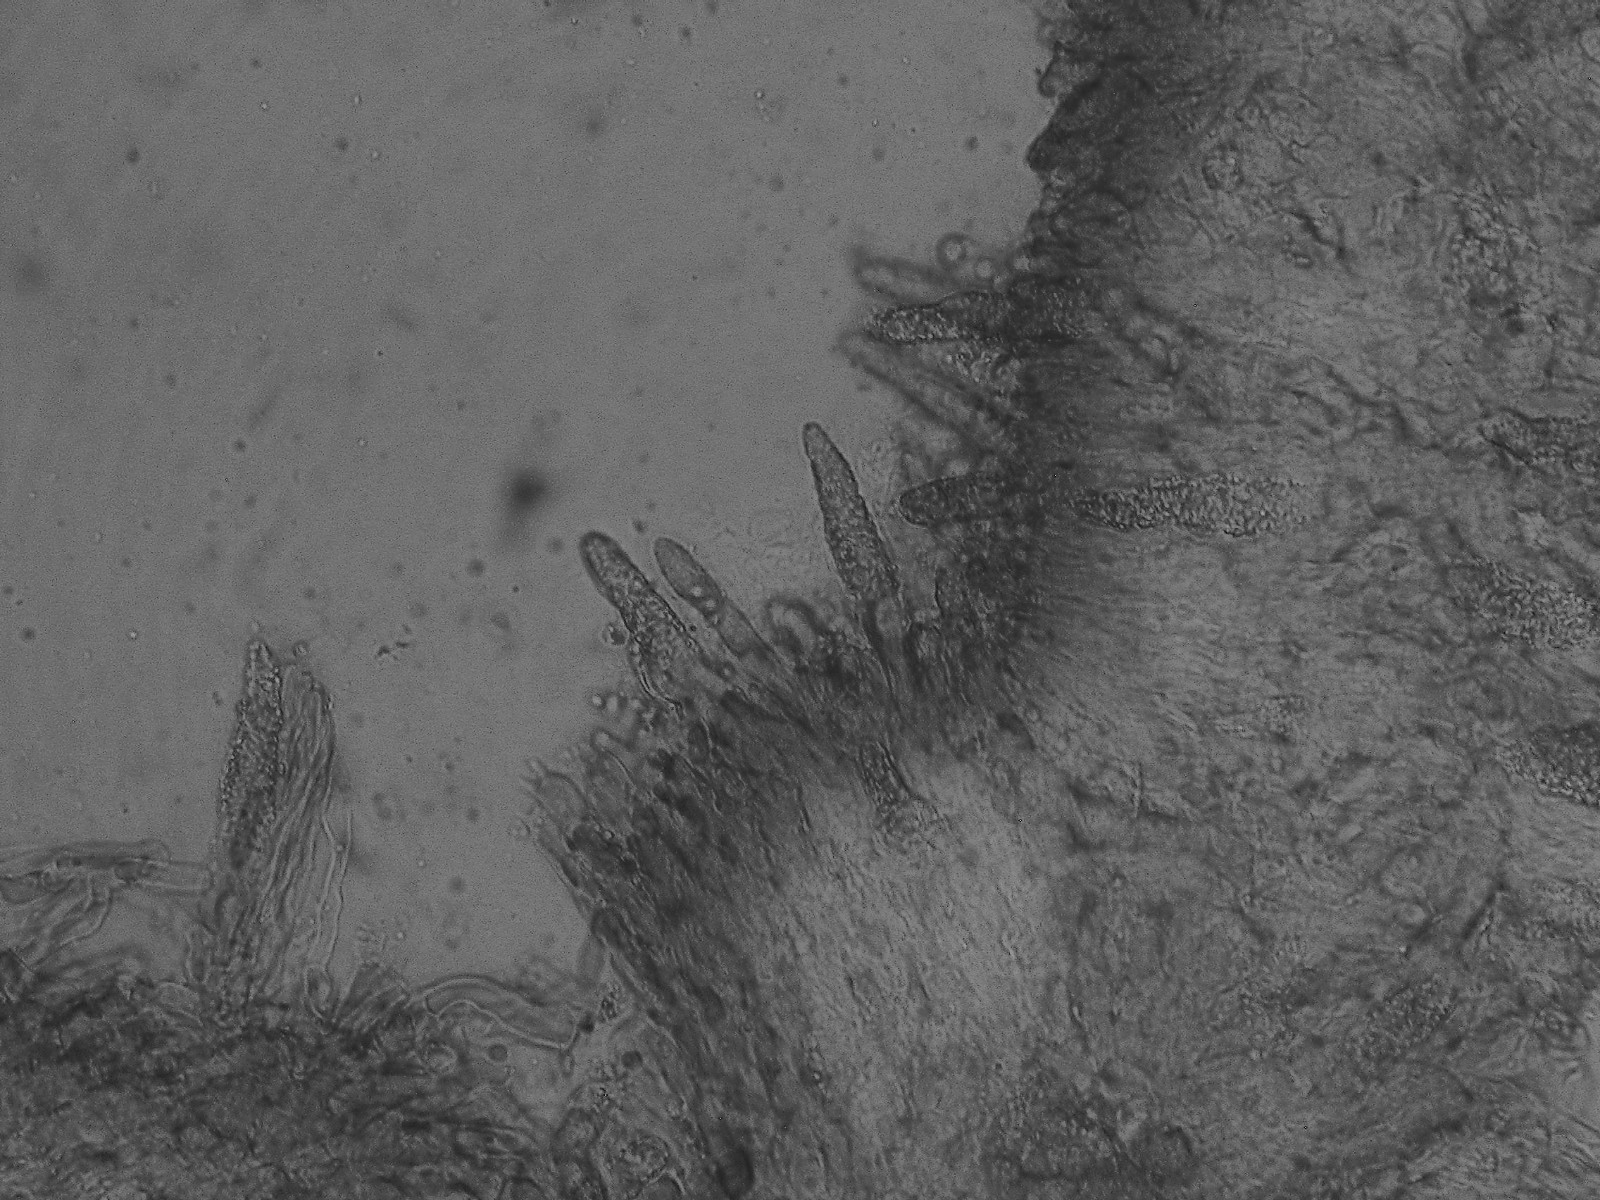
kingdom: Fungi
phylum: Basidiomycota
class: Agaricomycetes
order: Polyporales
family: Phanerochaetaceae
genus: Phanerochaete
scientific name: Phanerochaete sordida
